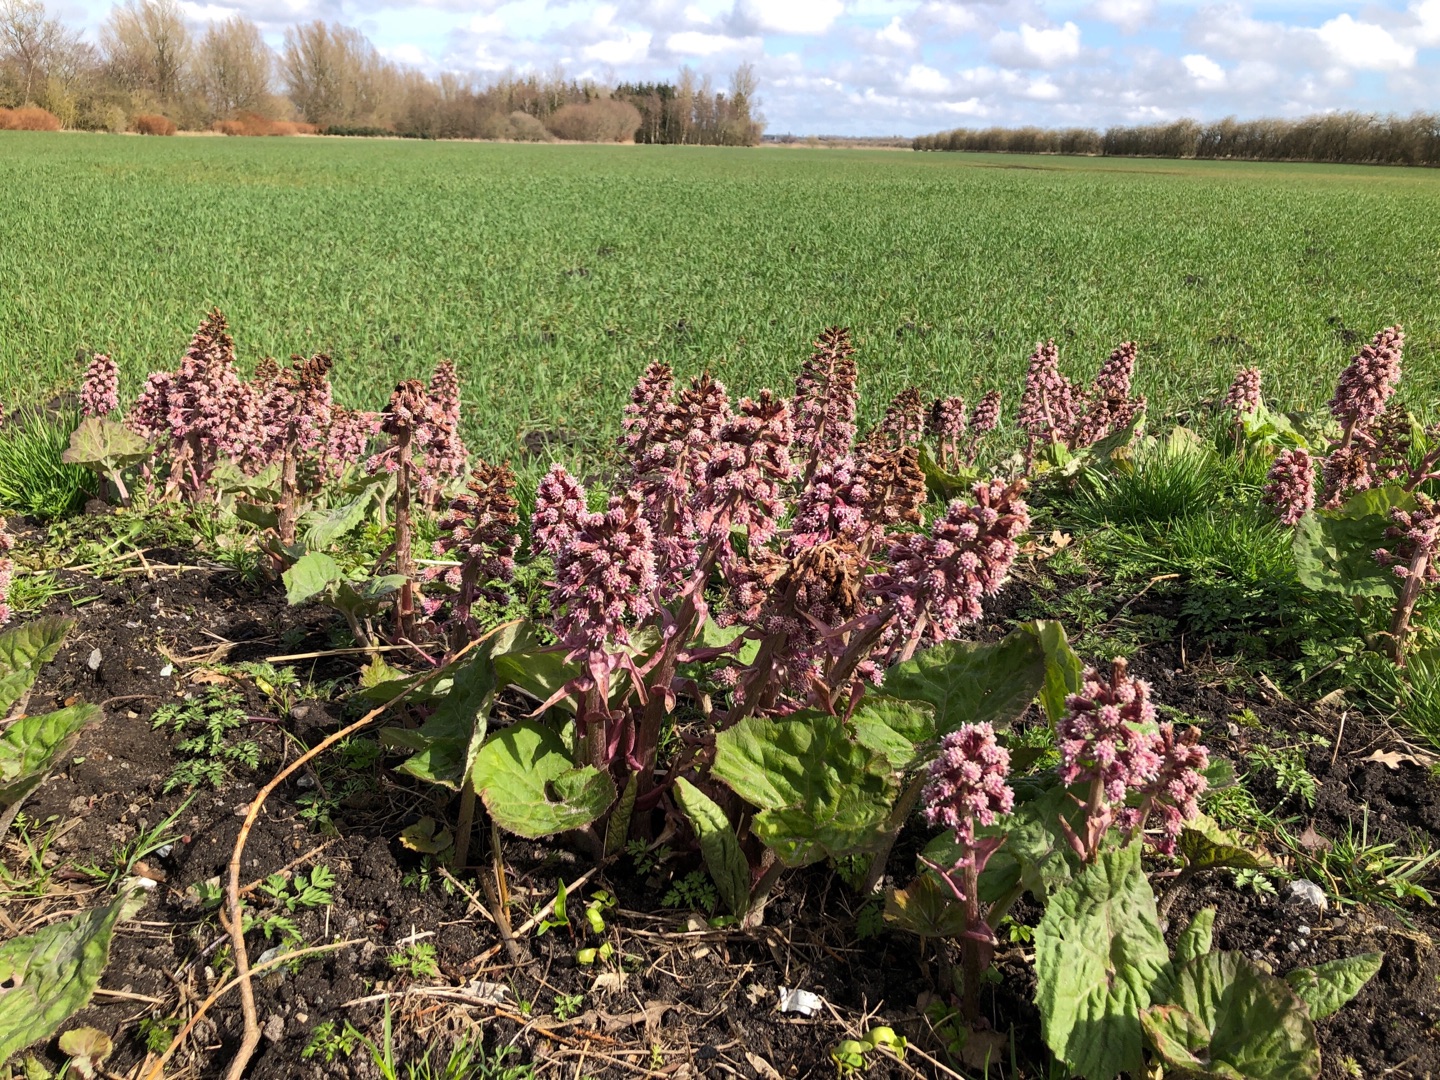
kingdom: Plantae
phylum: Tracheophyta
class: Magnoliopsida
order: Asterales
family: Asteraceae
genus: Petasites
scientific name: Petasites hybridus
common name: Rød hestehov
